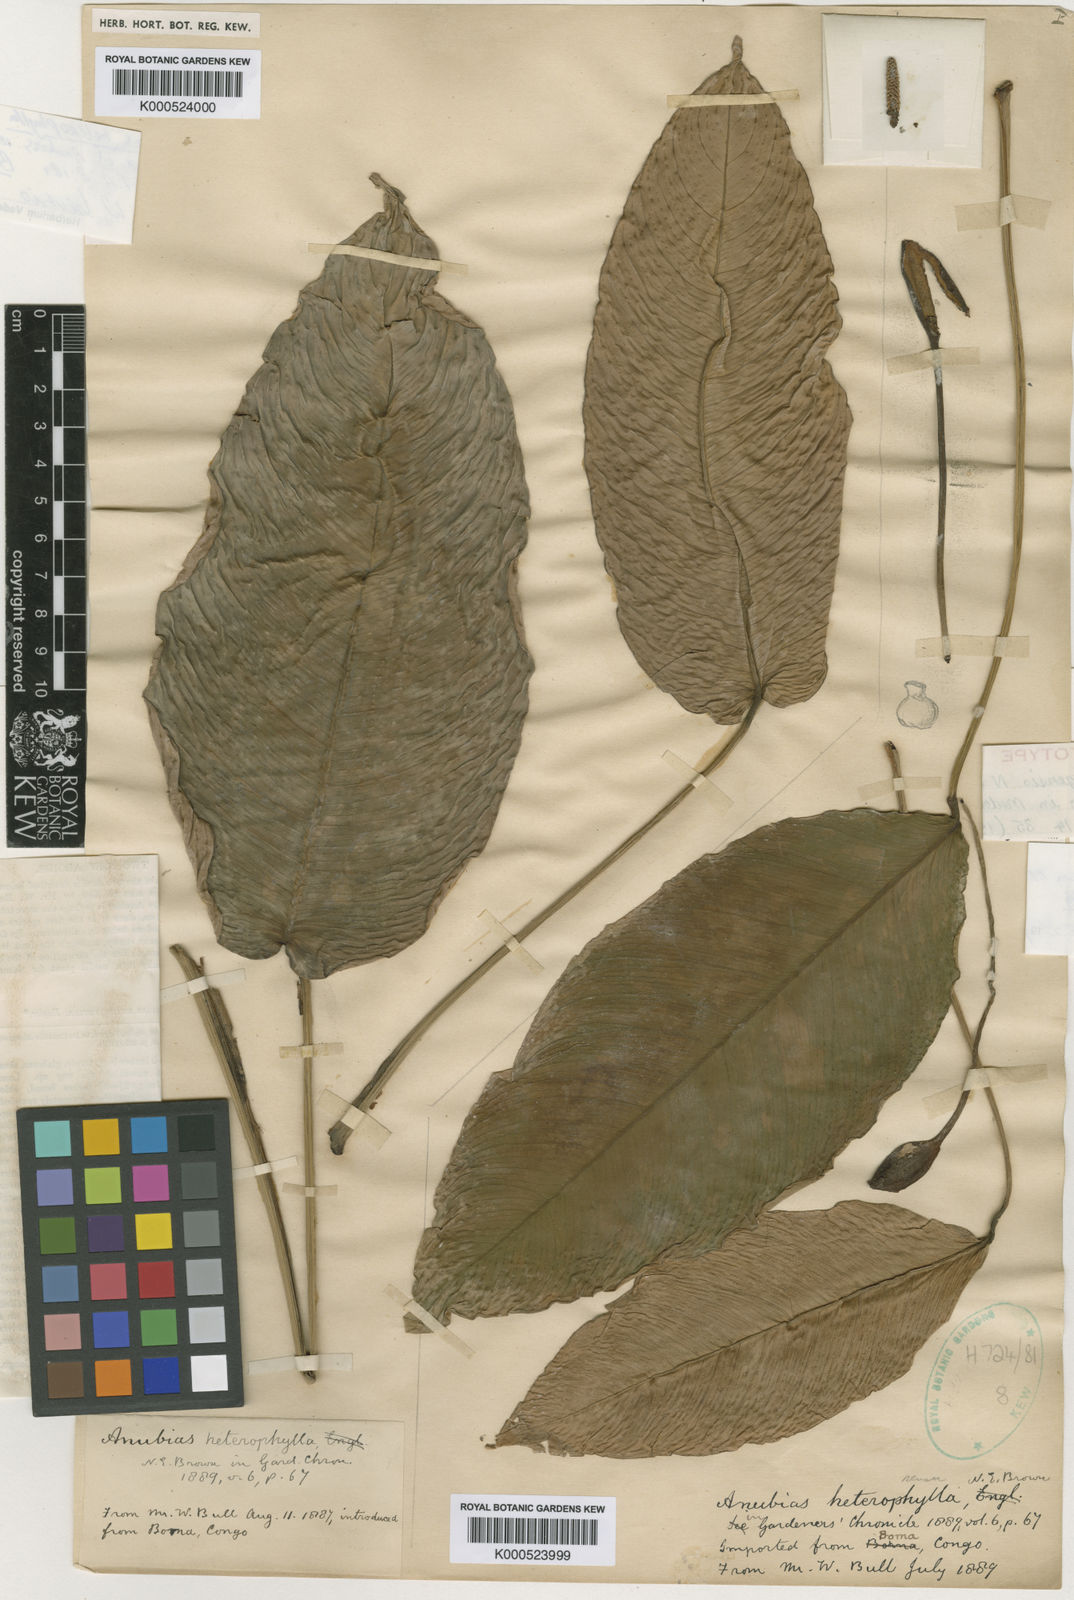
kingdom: Plantae
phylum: Tracheophyta
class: Liliopsida
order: Alismatales
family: Araceae
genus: Anubias
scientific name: Anubias heterophylla
